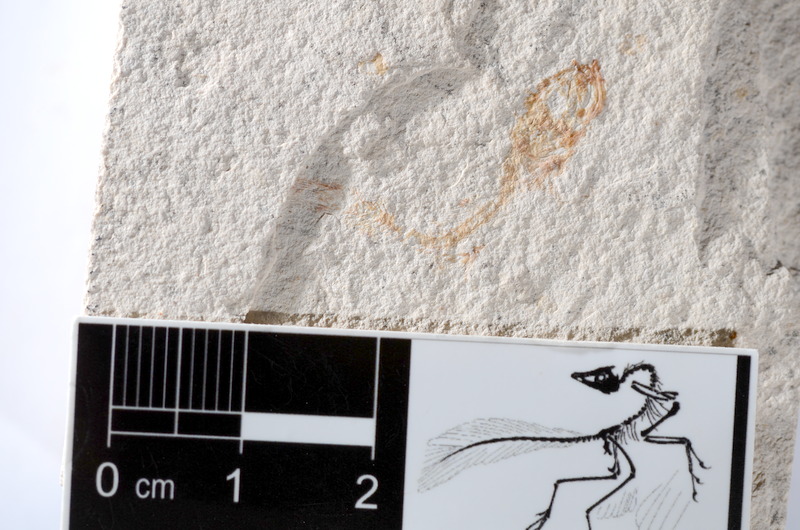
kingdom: Animalia
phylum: Chordata
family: Ascalaboidae
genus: Tharsis
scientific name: Tharsis dubius
